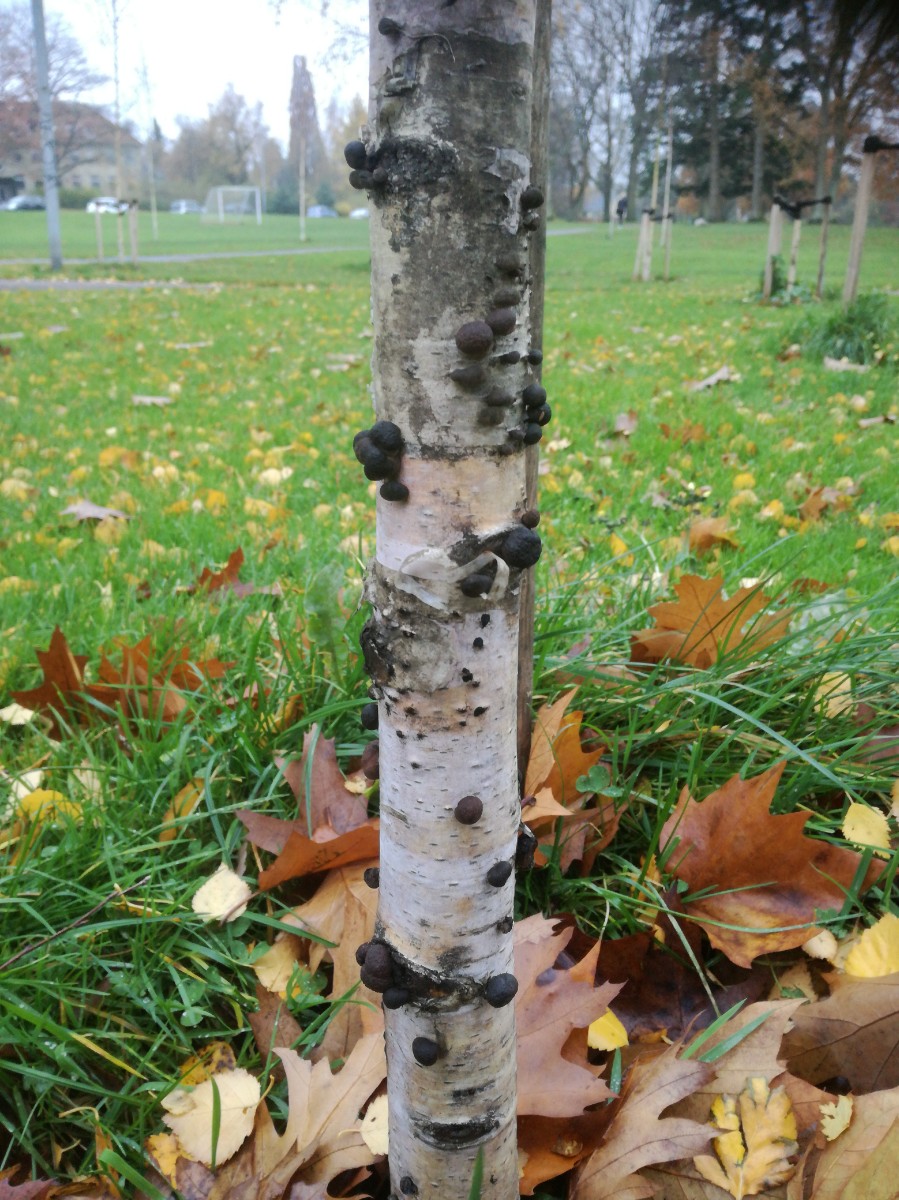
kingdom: Fungi
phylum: Ascomycota
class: Sordariomycetes
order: Xylariales
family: Hypoxylaceae
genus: Daldinia
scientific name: Daldinia petriniae
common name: elle-bæltekugle
